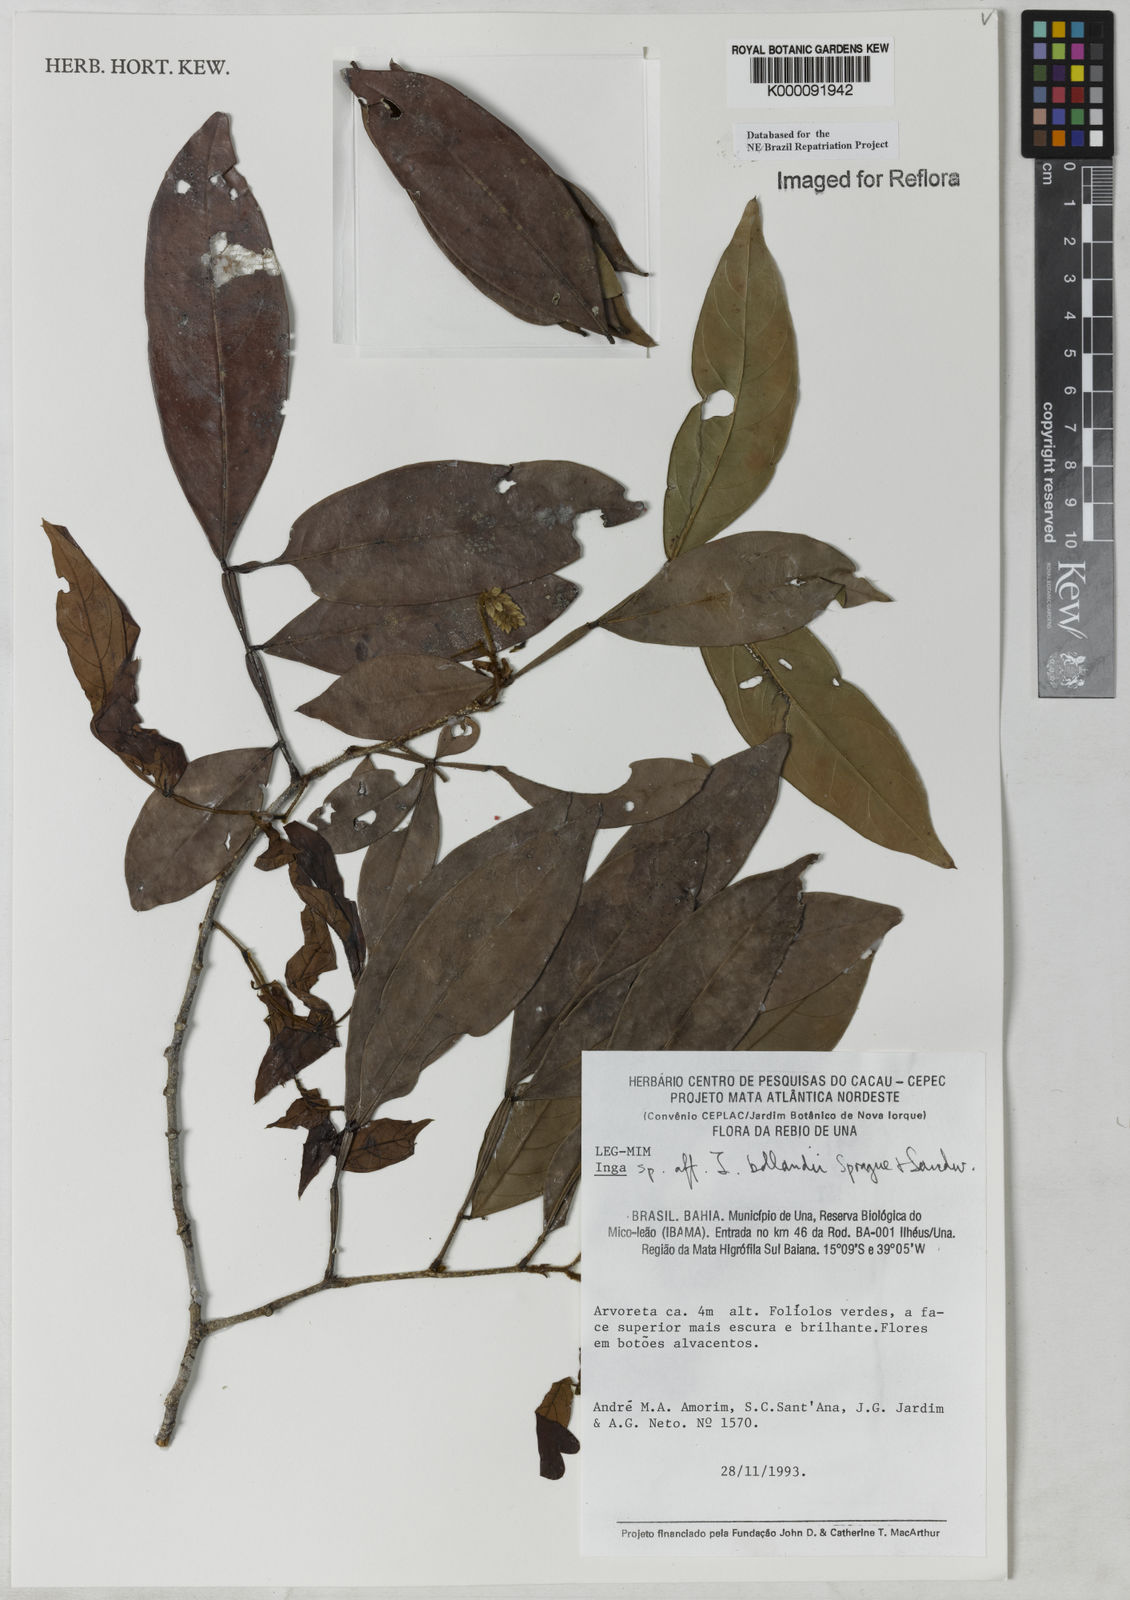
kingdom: Plantae
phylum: Tracheophyta
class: Magnoliopsida
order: Fabales
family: Fabaceae
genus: Inga
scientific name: Inga bollandii
